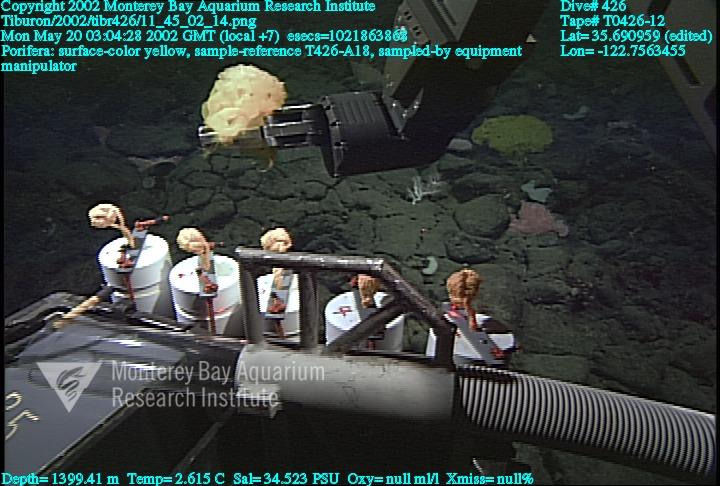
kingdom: Animalia
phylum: Porifera
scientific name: Porifera
